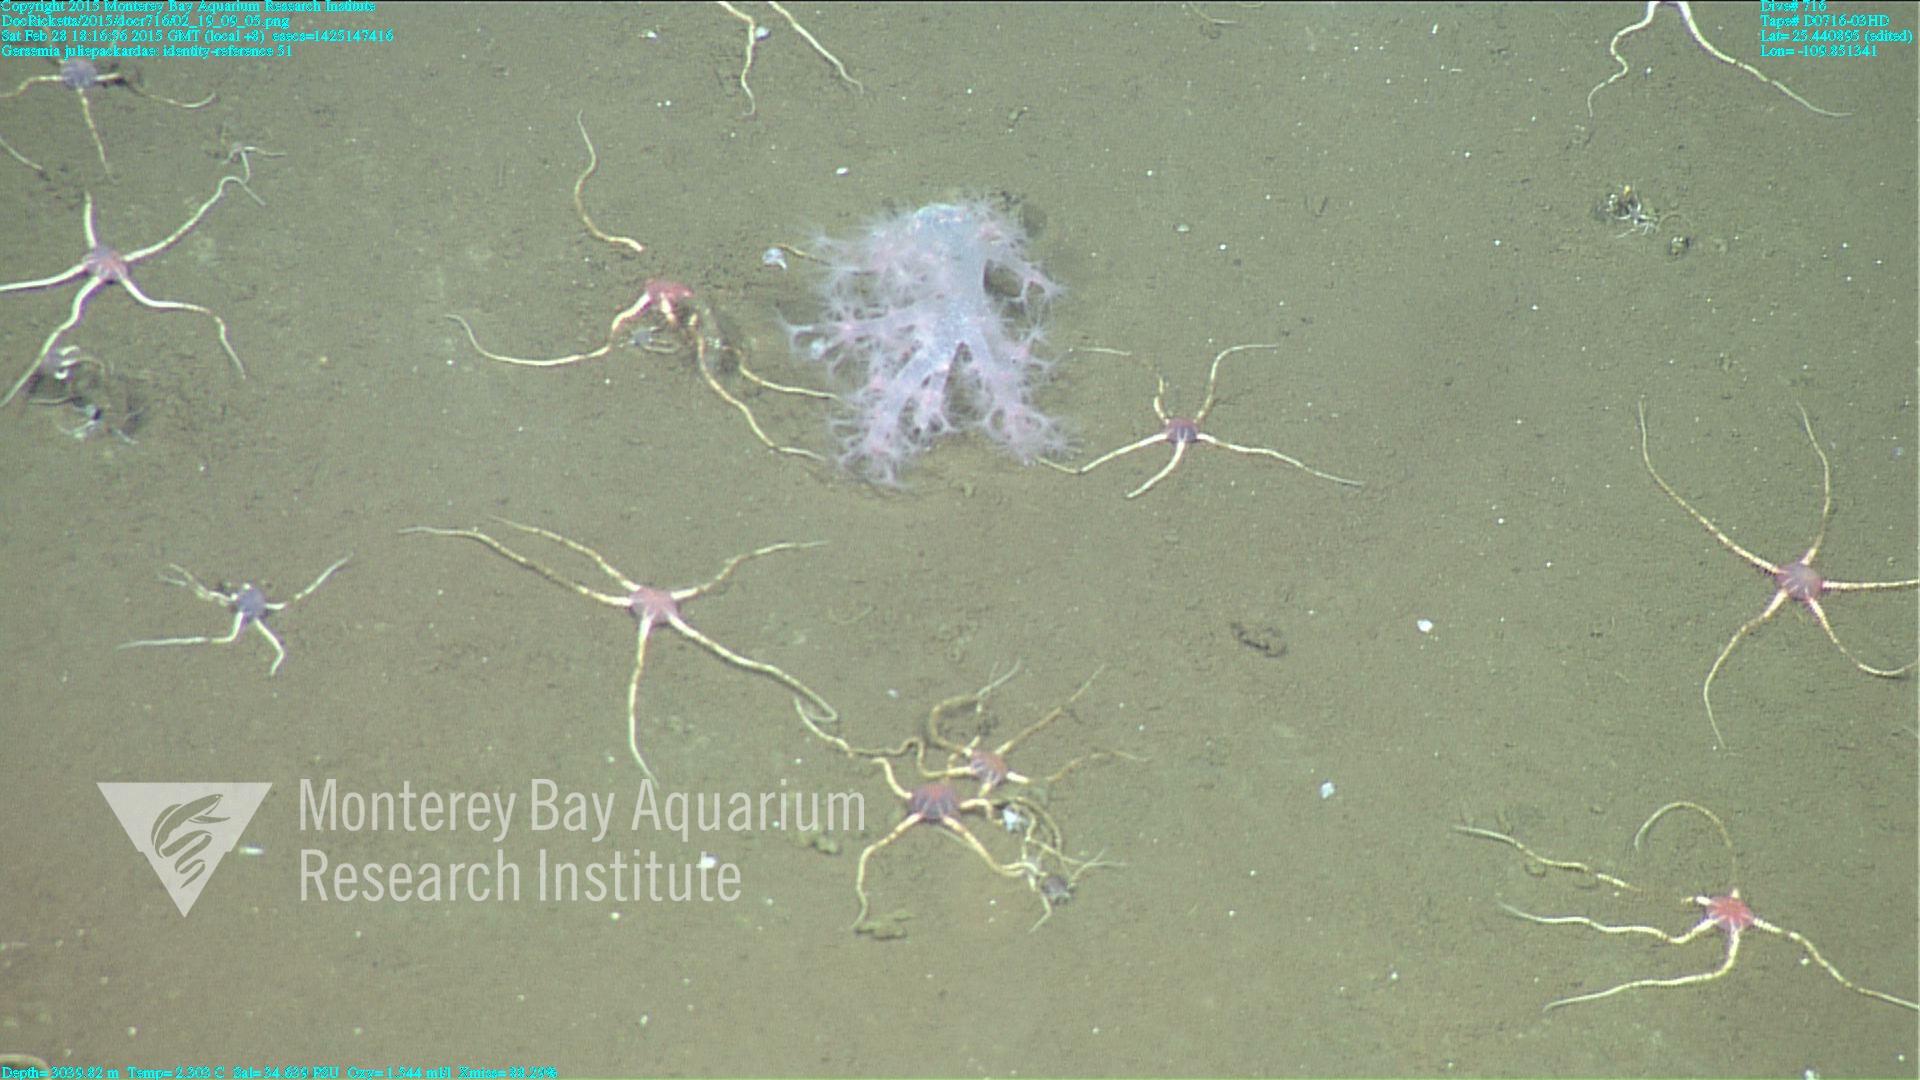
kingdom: Animalia
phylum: Cnidaria
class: Anthozoa
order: Malacalcyonacea
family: Alcyoniidae
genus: Gersemia
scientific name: Gersemia juliepackardae
